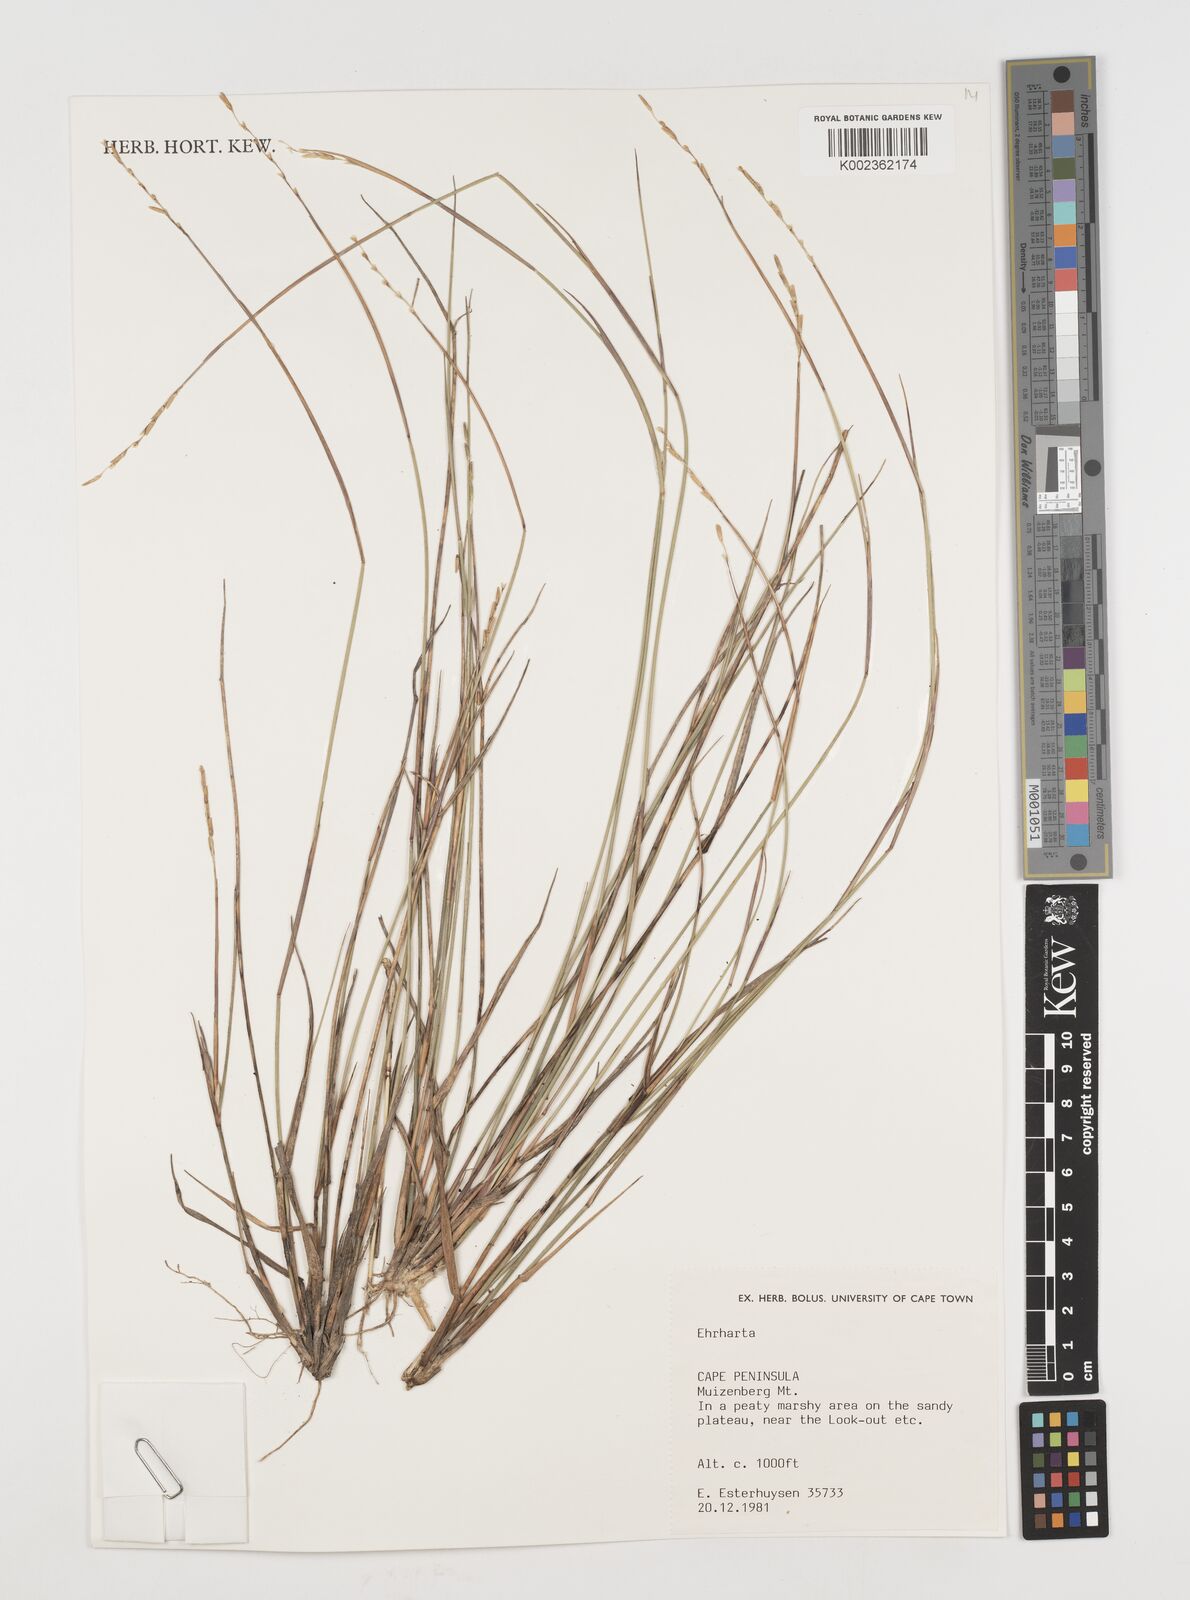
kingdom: Plantae
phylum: Tracheophyta
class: Liliopsida
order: Poales
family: Poaceae
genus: Ehrharta
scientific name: Ehrharta
